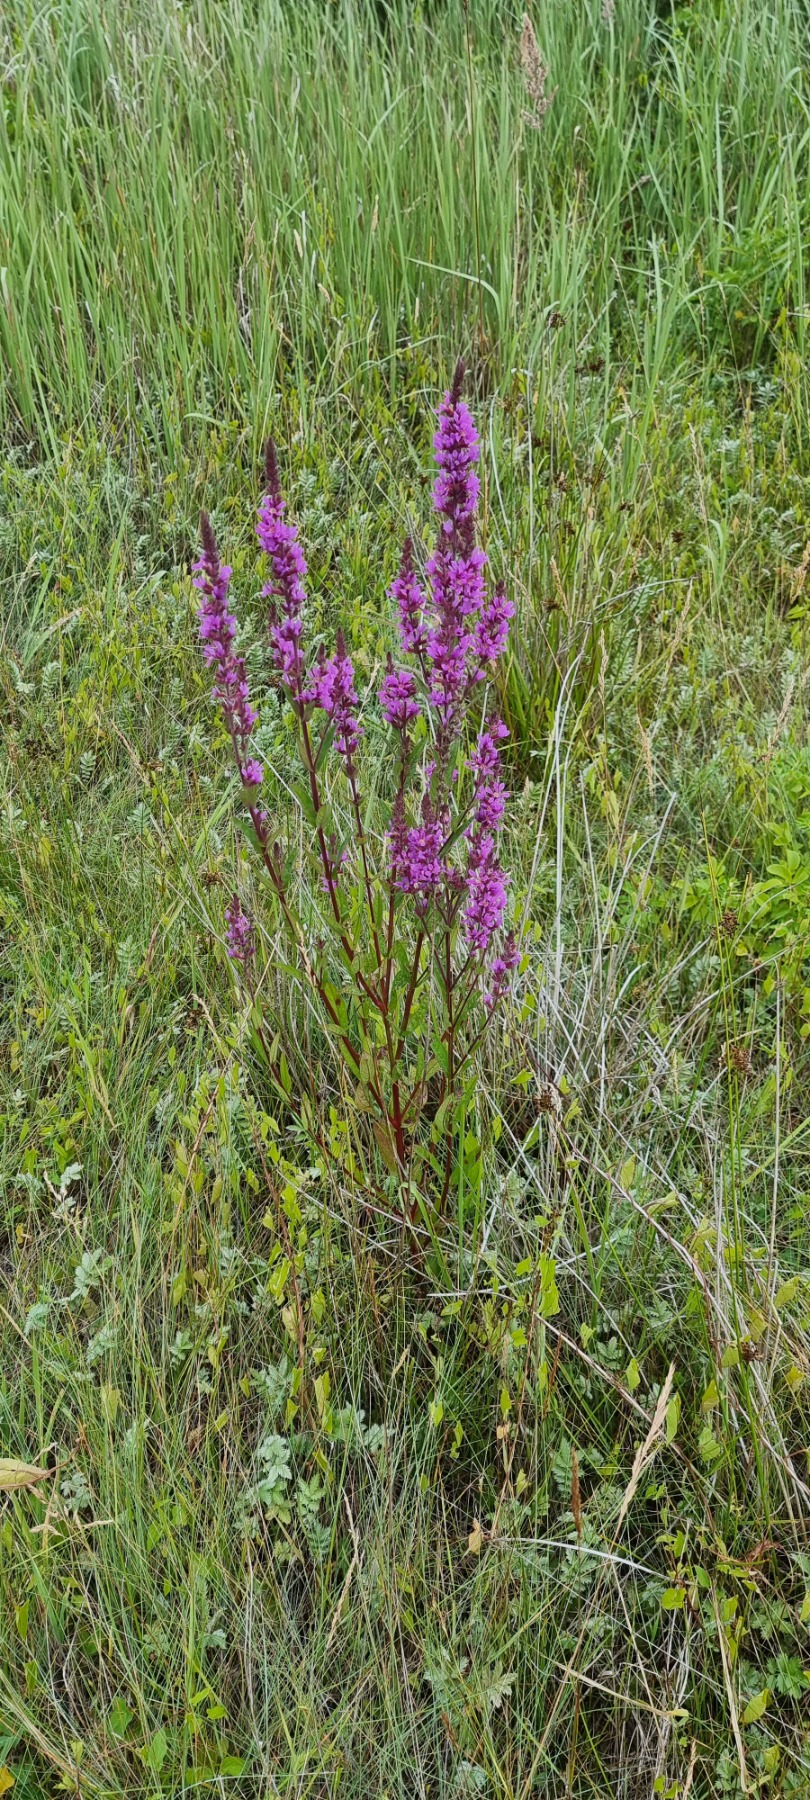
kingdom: Plantae
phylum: Tracheophyta
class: Magnoliopsida
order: Myrtales
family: Lythraceae
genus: Lythrum
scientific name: Lythrum salicaria
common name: Kattehale
